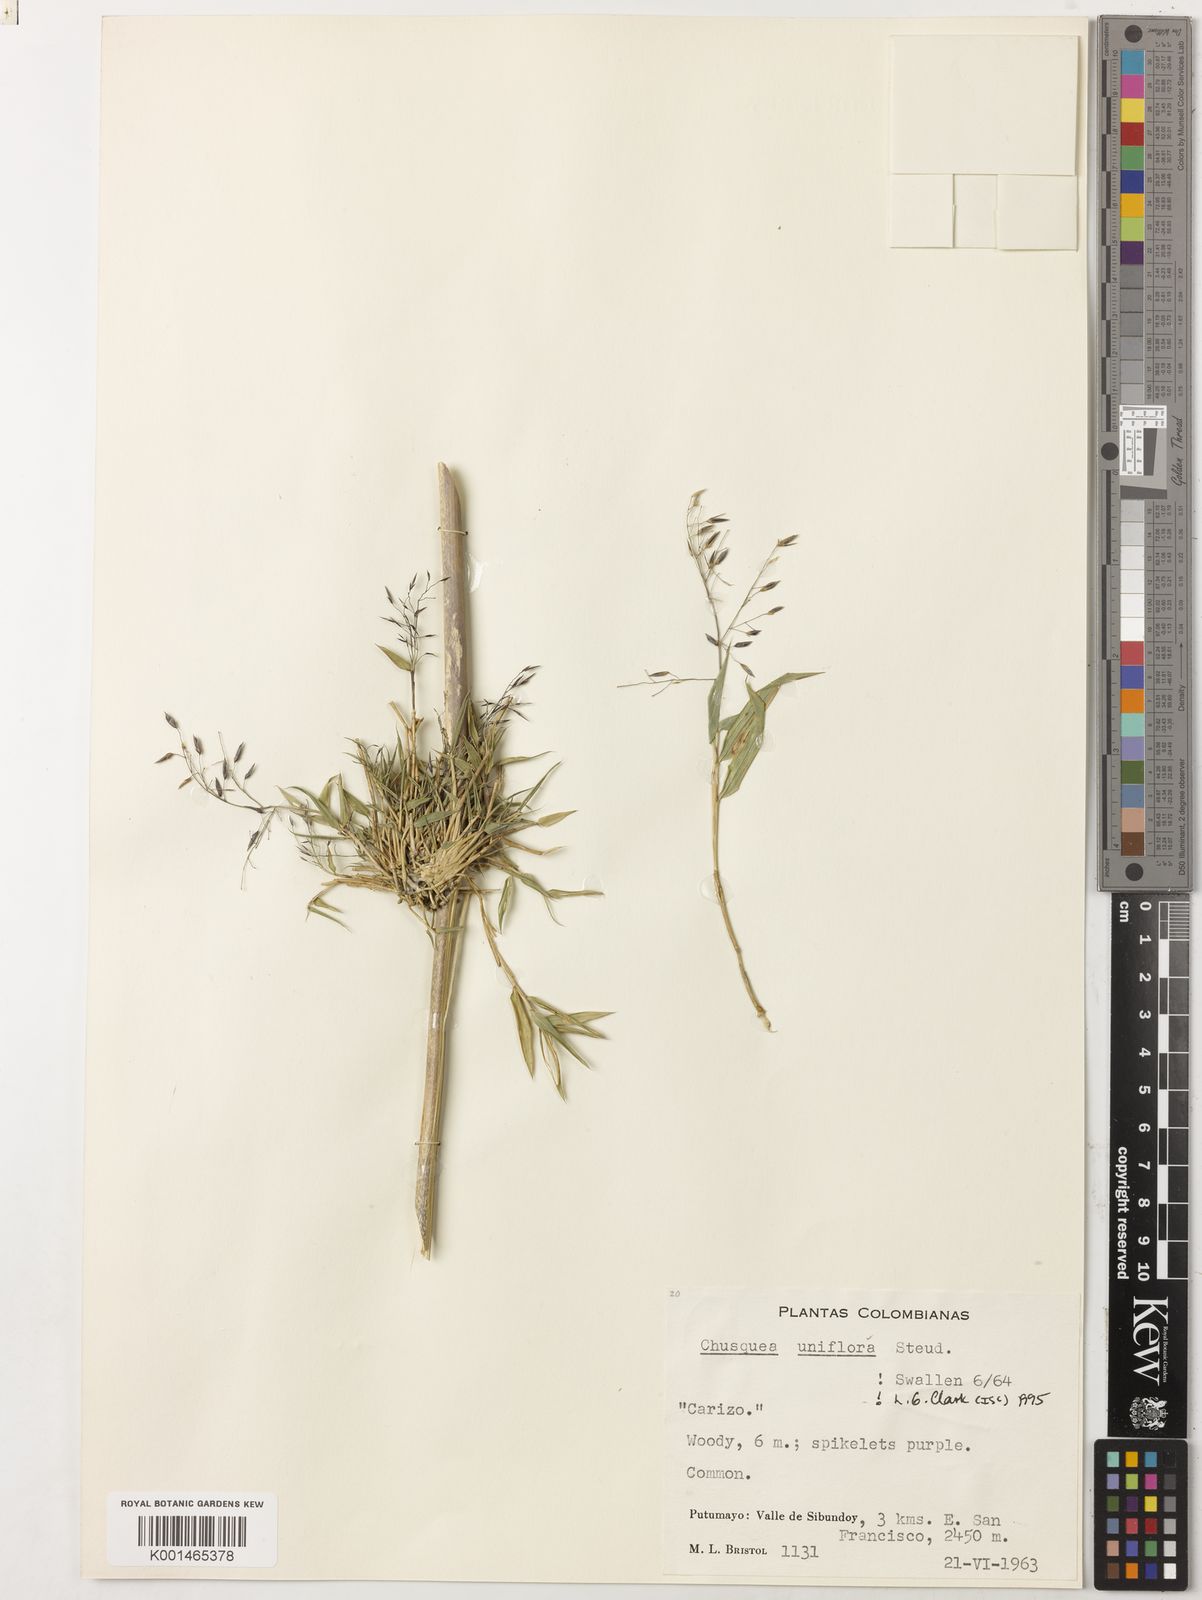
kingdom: Plantae
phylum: Tracheophyta
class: Liliopsida
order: Poales
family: Poaceae
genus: Chusquea
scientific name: Chusquea uniflora
